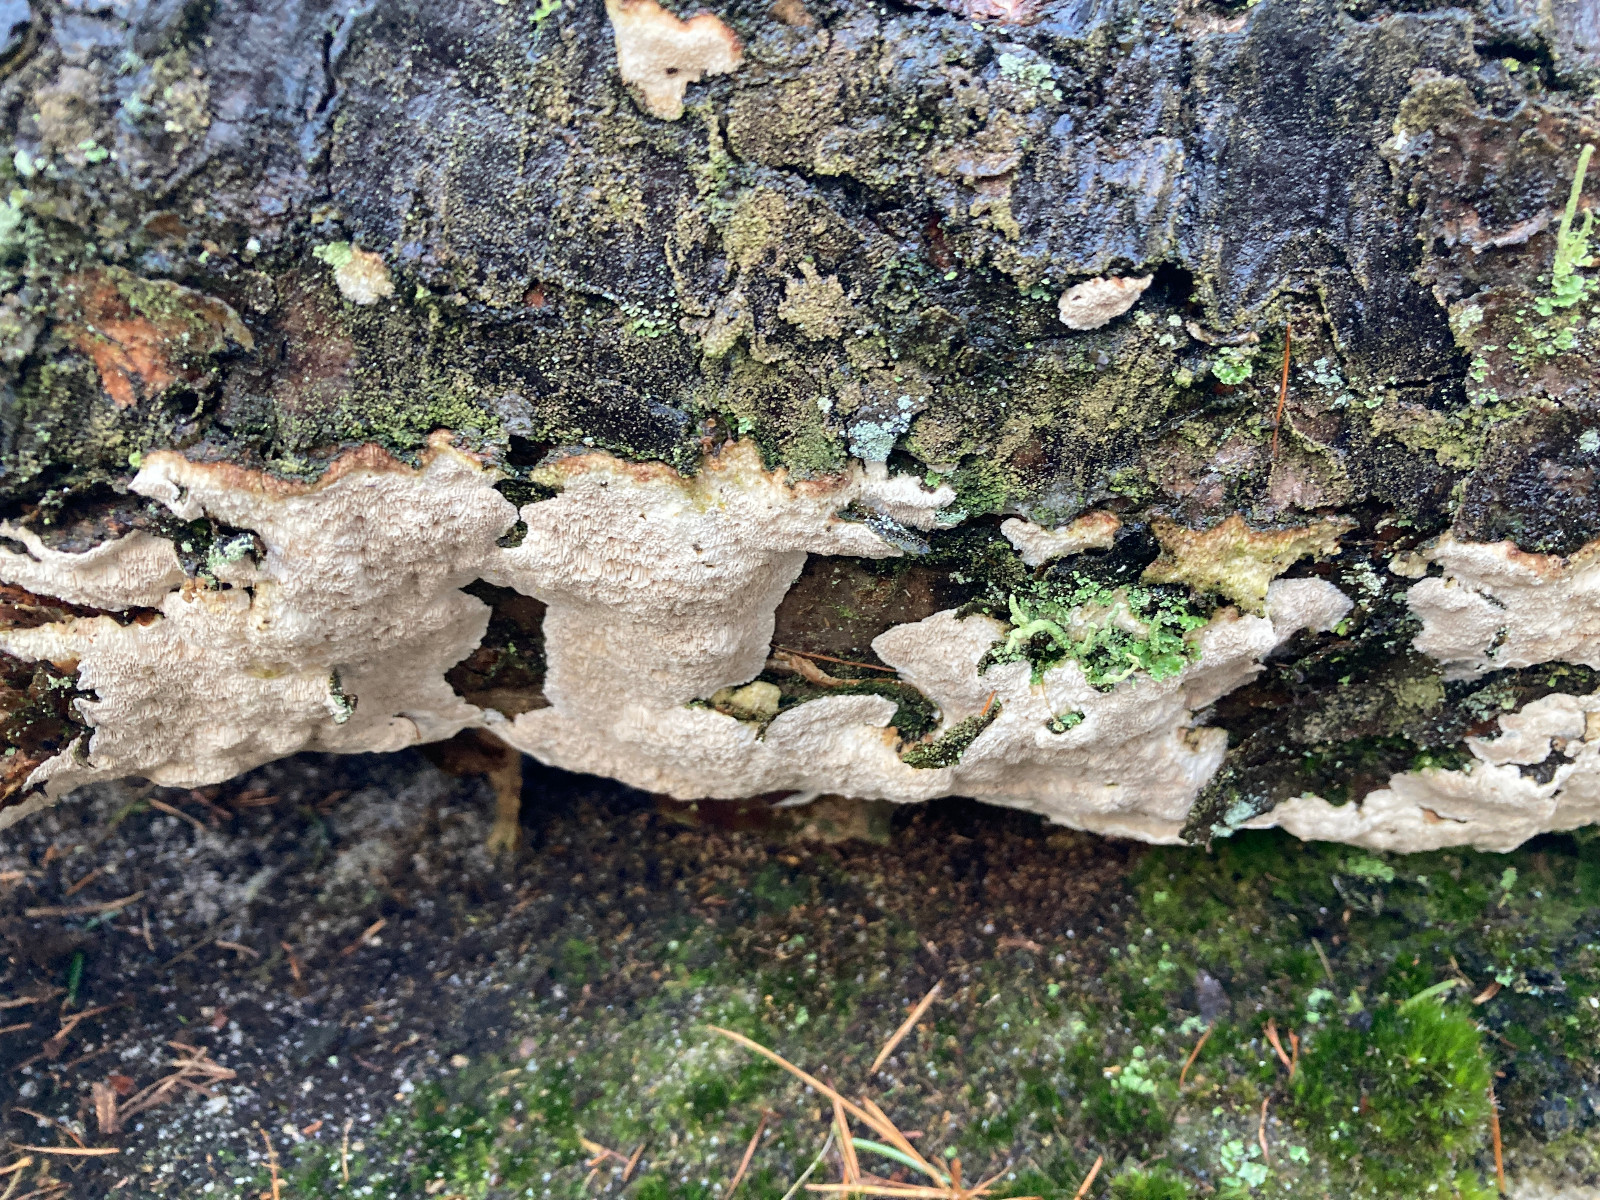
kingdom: Fungi
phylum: Basidiomycota
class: Agaricomycetes
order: Polyporales
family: Gelatoporiaceae
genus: Cinereomyces
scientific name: Cinereomyces lindbladii
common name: almindelig gråporesvamp
